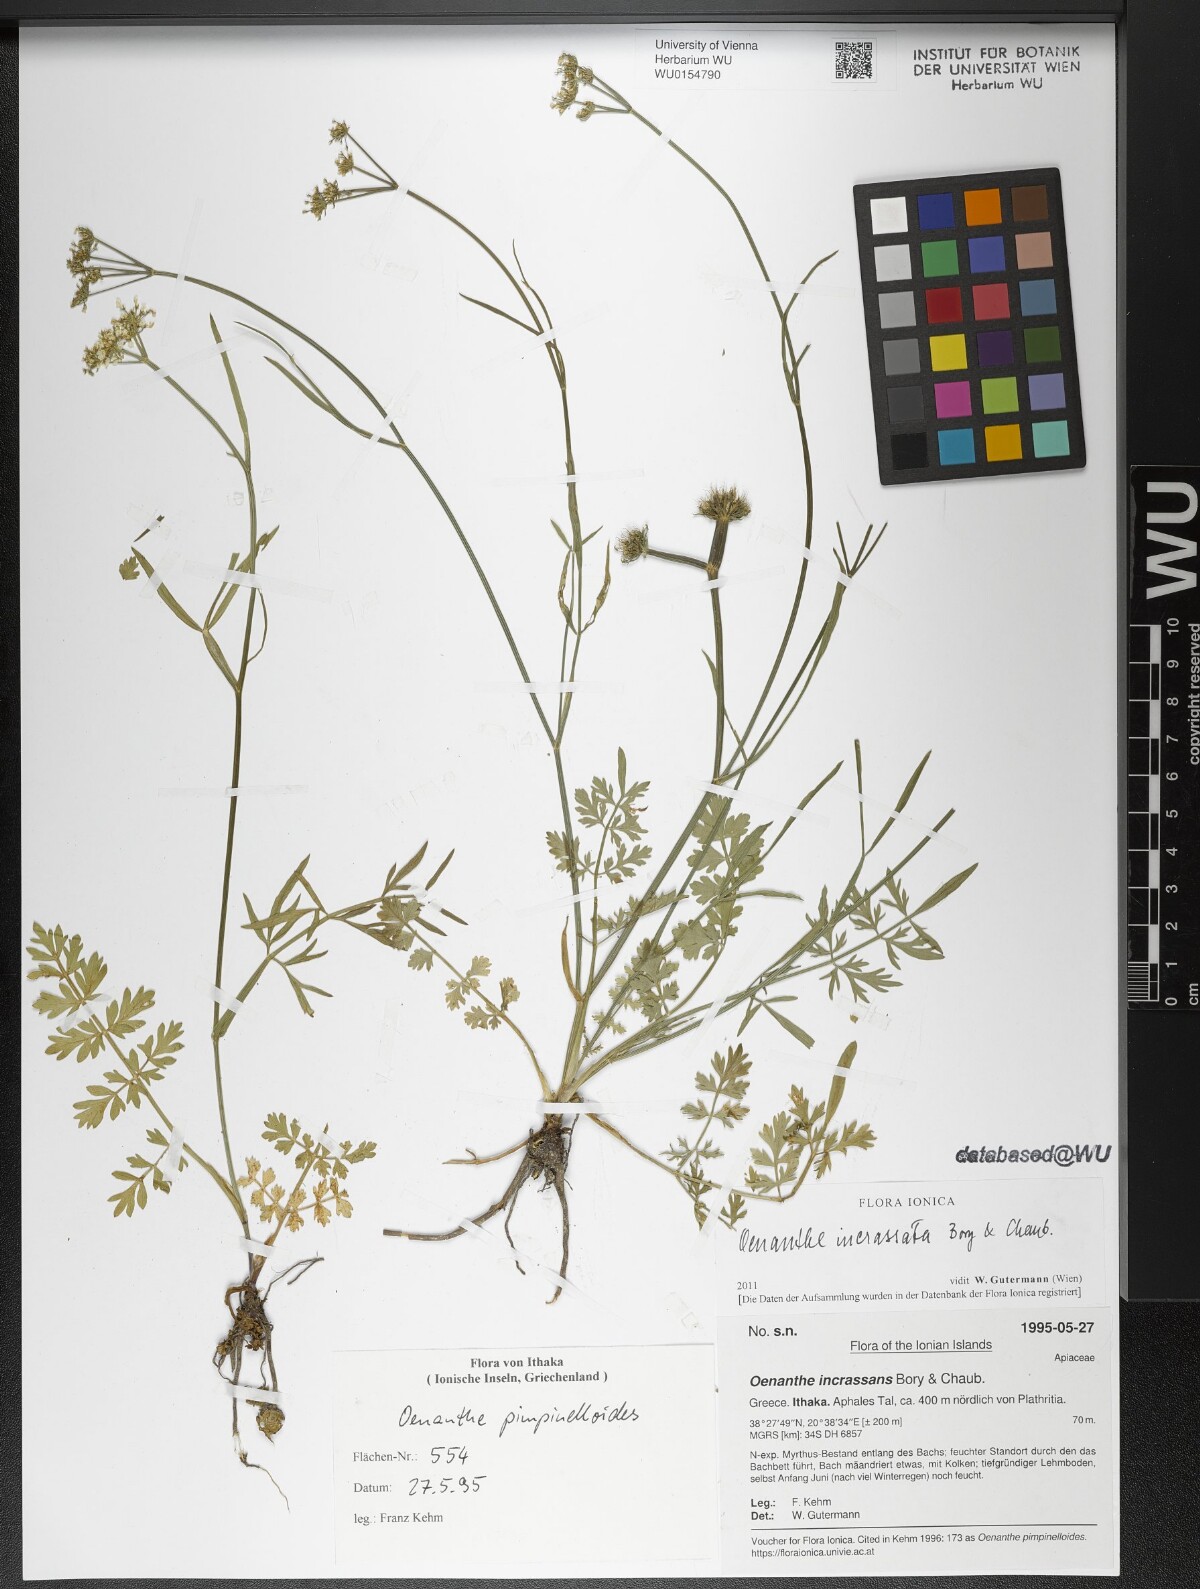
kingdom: Plantae
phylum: Tracheophyta
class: Magnoliopsida
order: Apiales
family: Apiaceae
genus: Oenanthe
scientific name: Oenanthe pimpinelloides
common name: Corky-fruited water-dropwort
